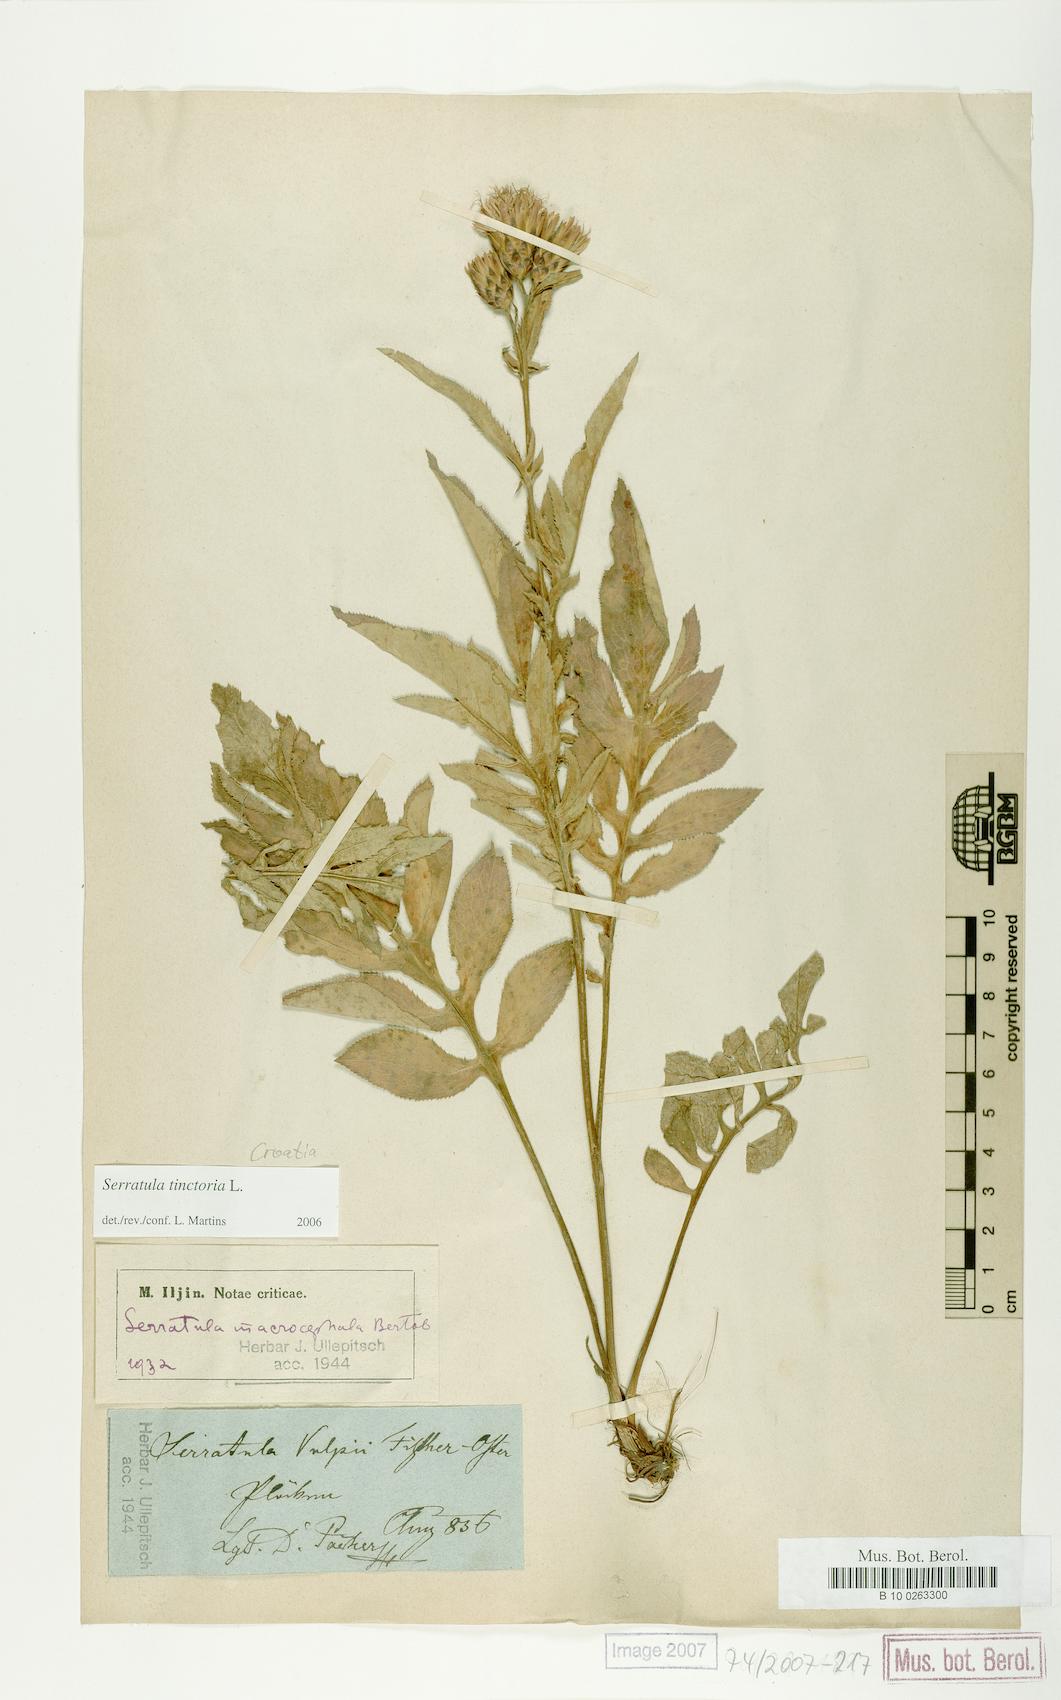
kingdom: Plantae
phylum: Tracheophyta
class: Magnoliopsida
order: Asterales
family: Asteraceae
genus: Serratula
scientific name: Serratula tinctoria
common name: Saw-wort
